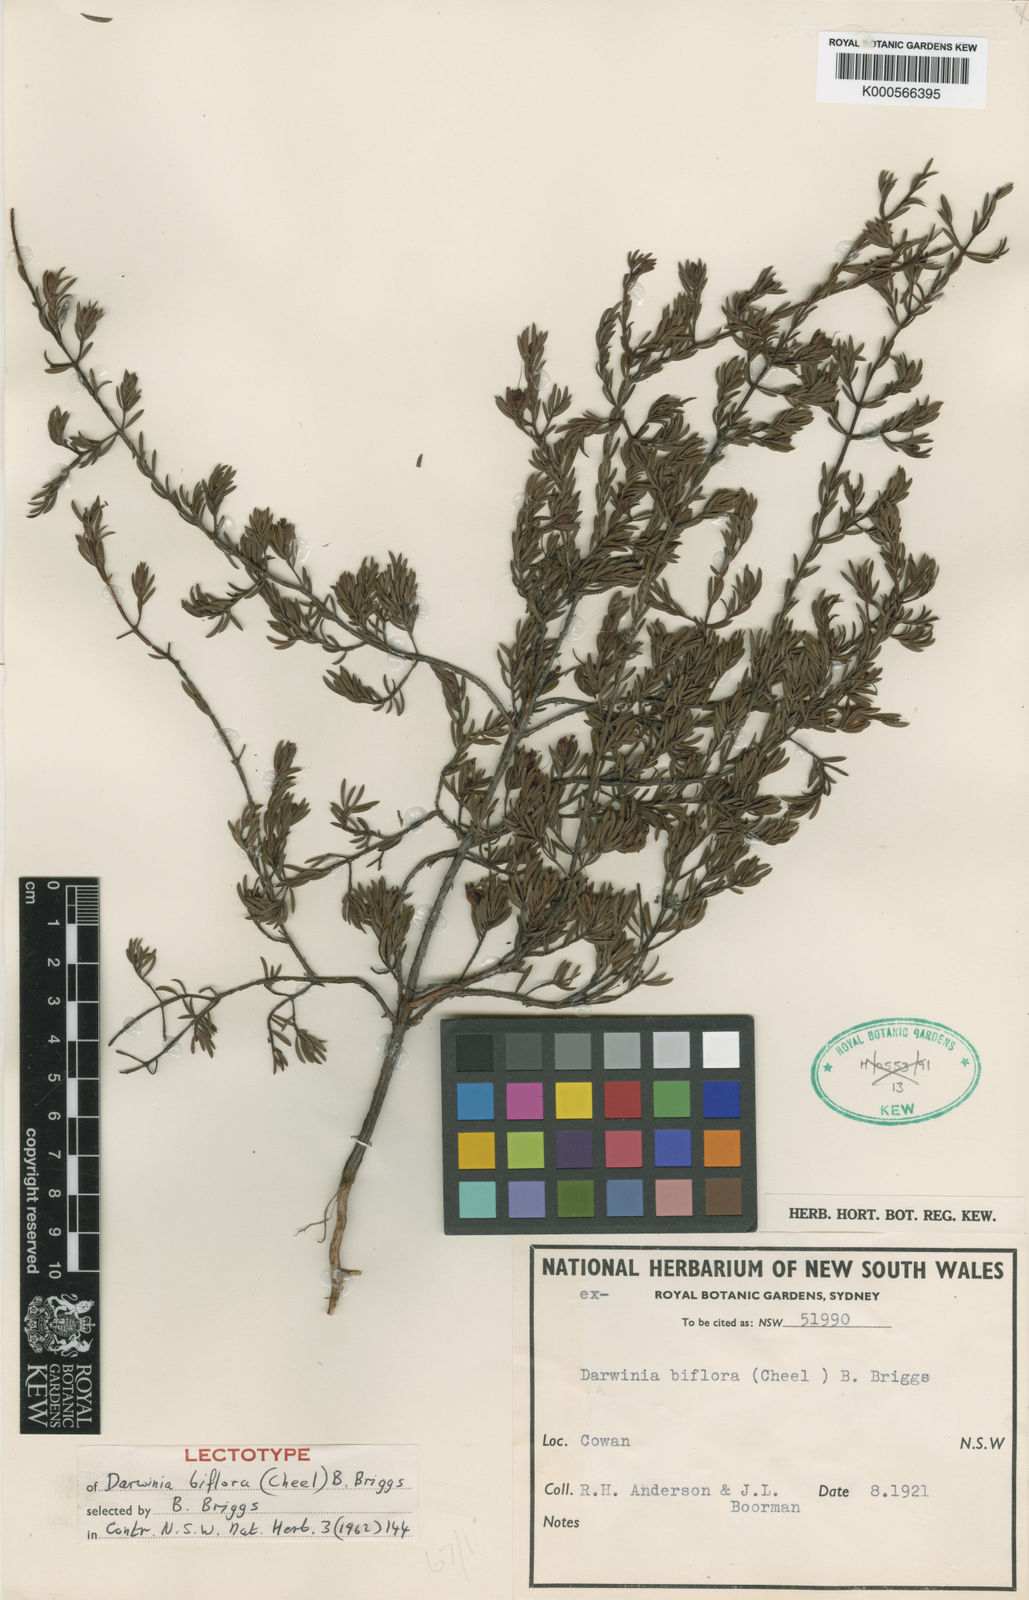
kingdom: Plantae
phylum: Tracheophyta
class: Magnoliopsida
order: Myrtales
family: Myrtaceae
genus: Darwinia
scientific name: Darwinia biflora
